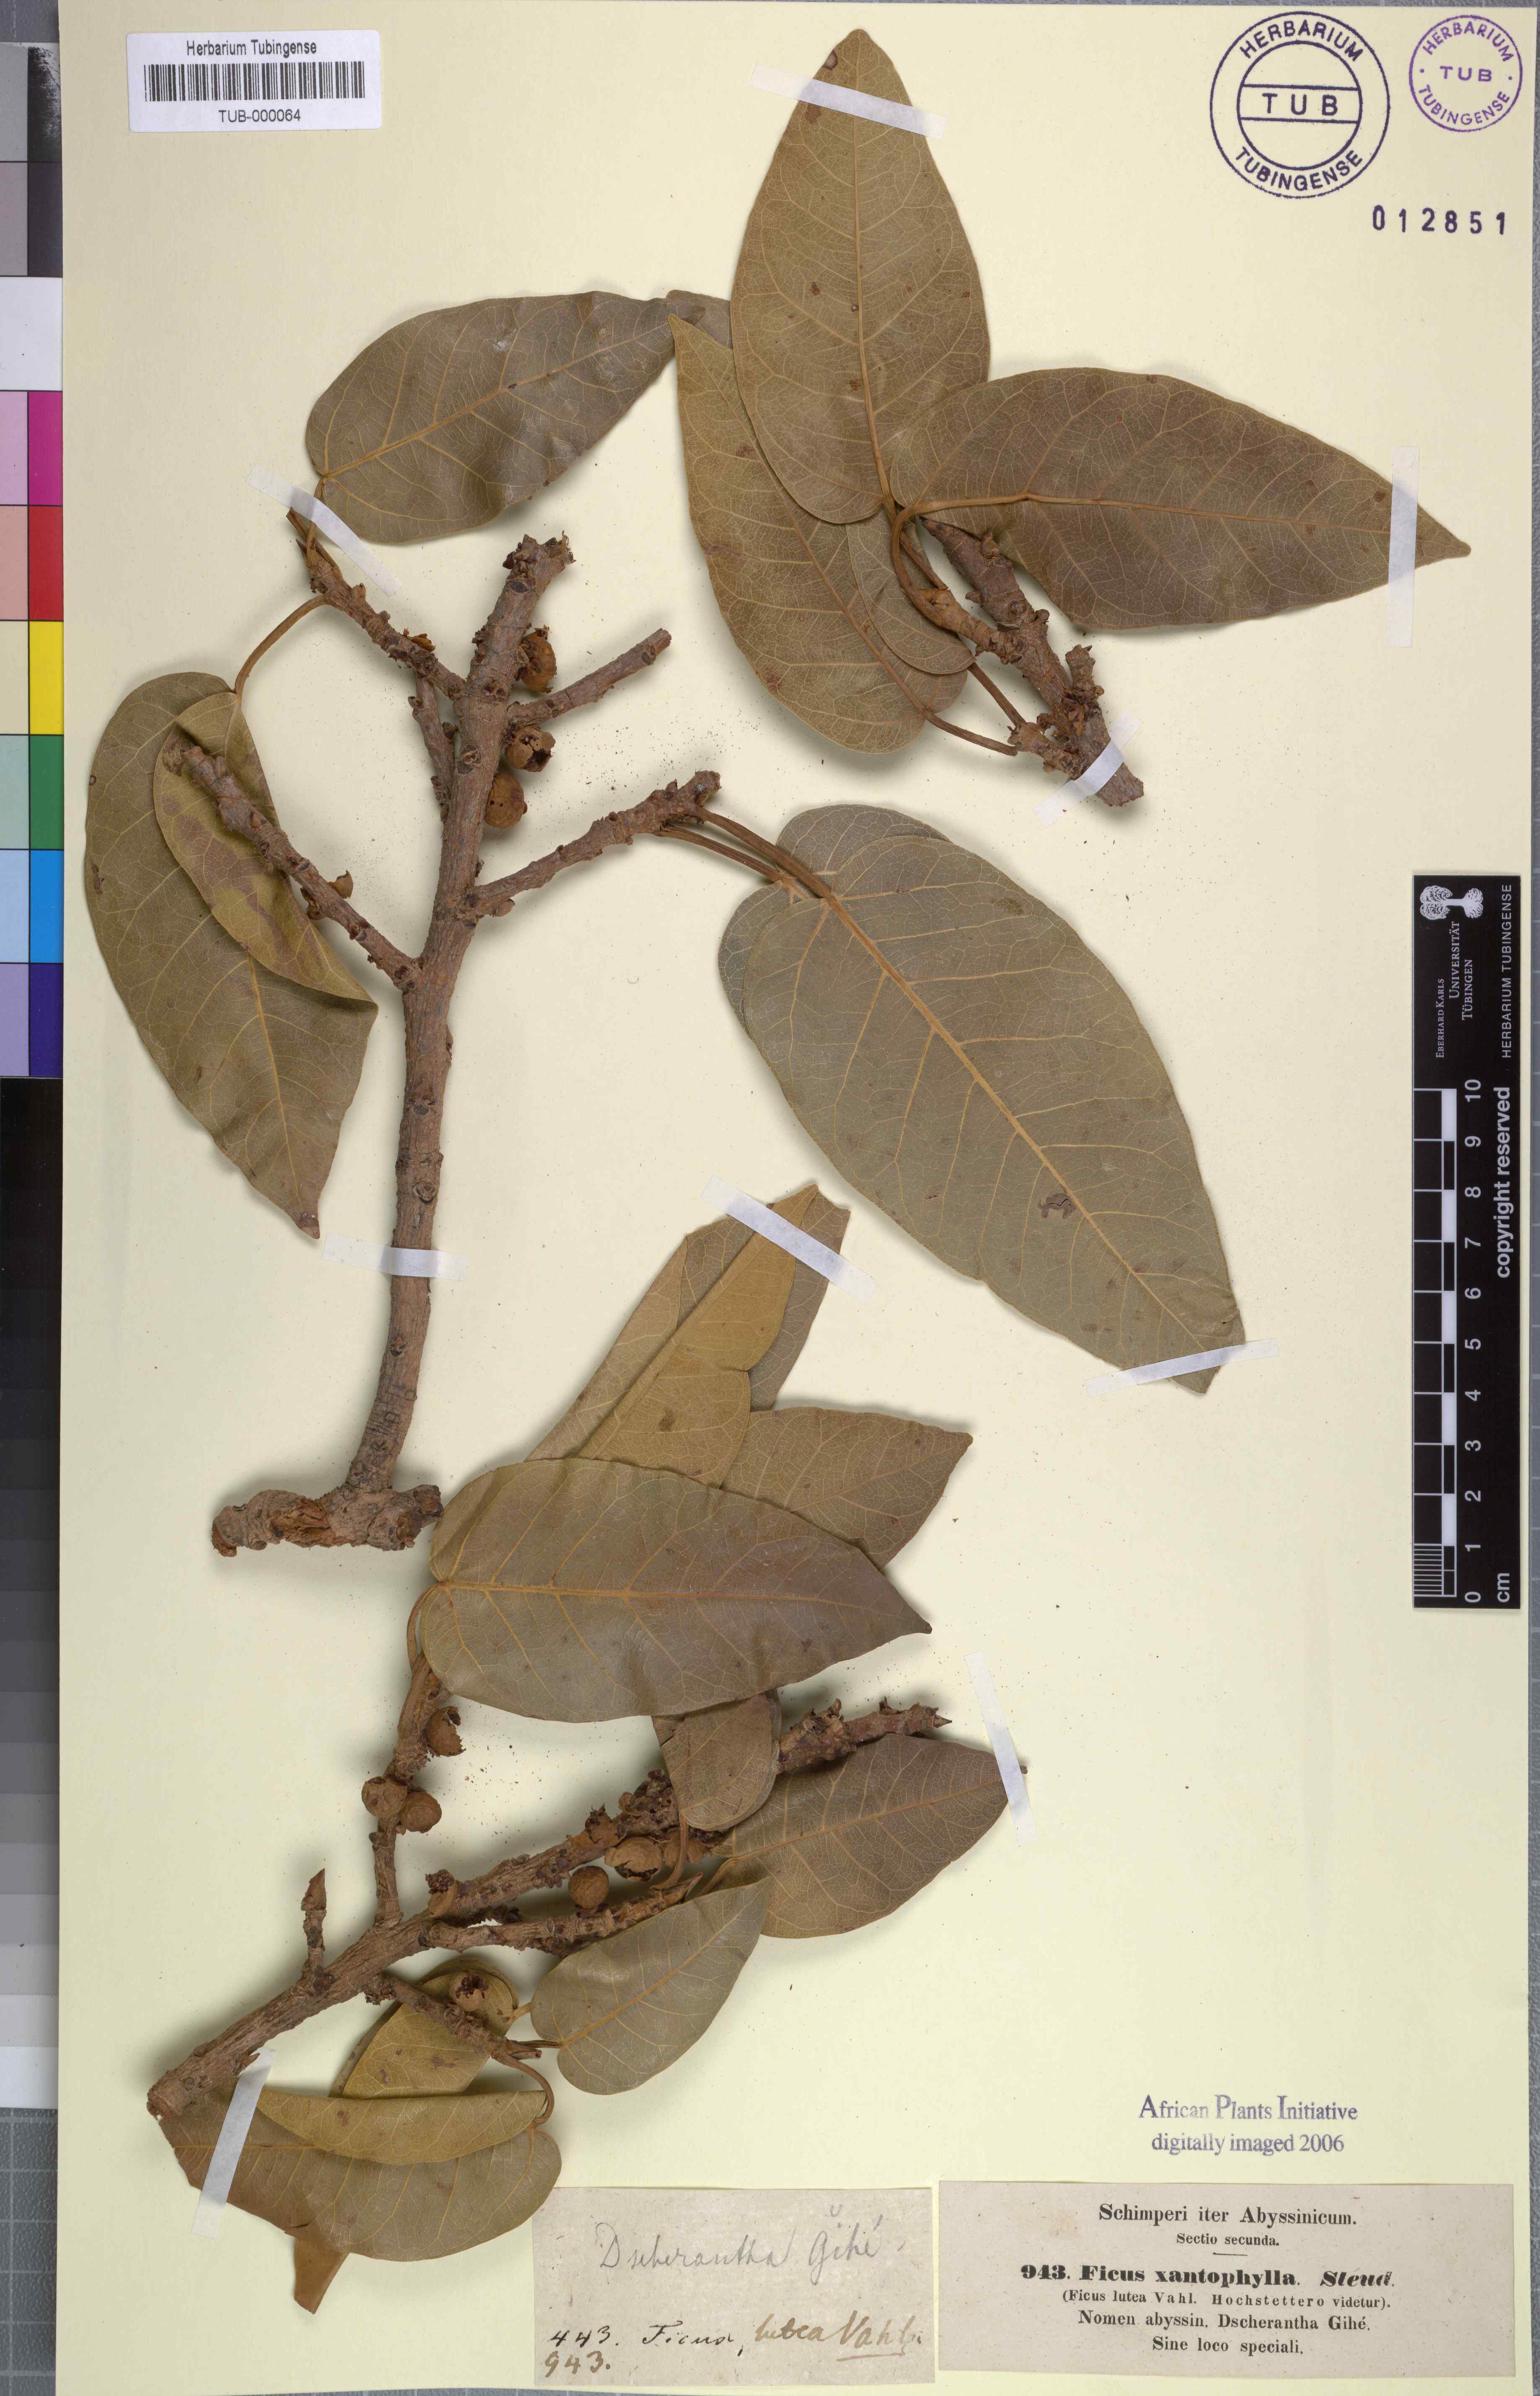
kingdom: Plantae
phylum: Tracheophyta
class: Magnoliopsida
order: Rosales
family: Moraceae
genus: Ficus
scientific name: Ficus lutea
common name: Giant-leaved fig
